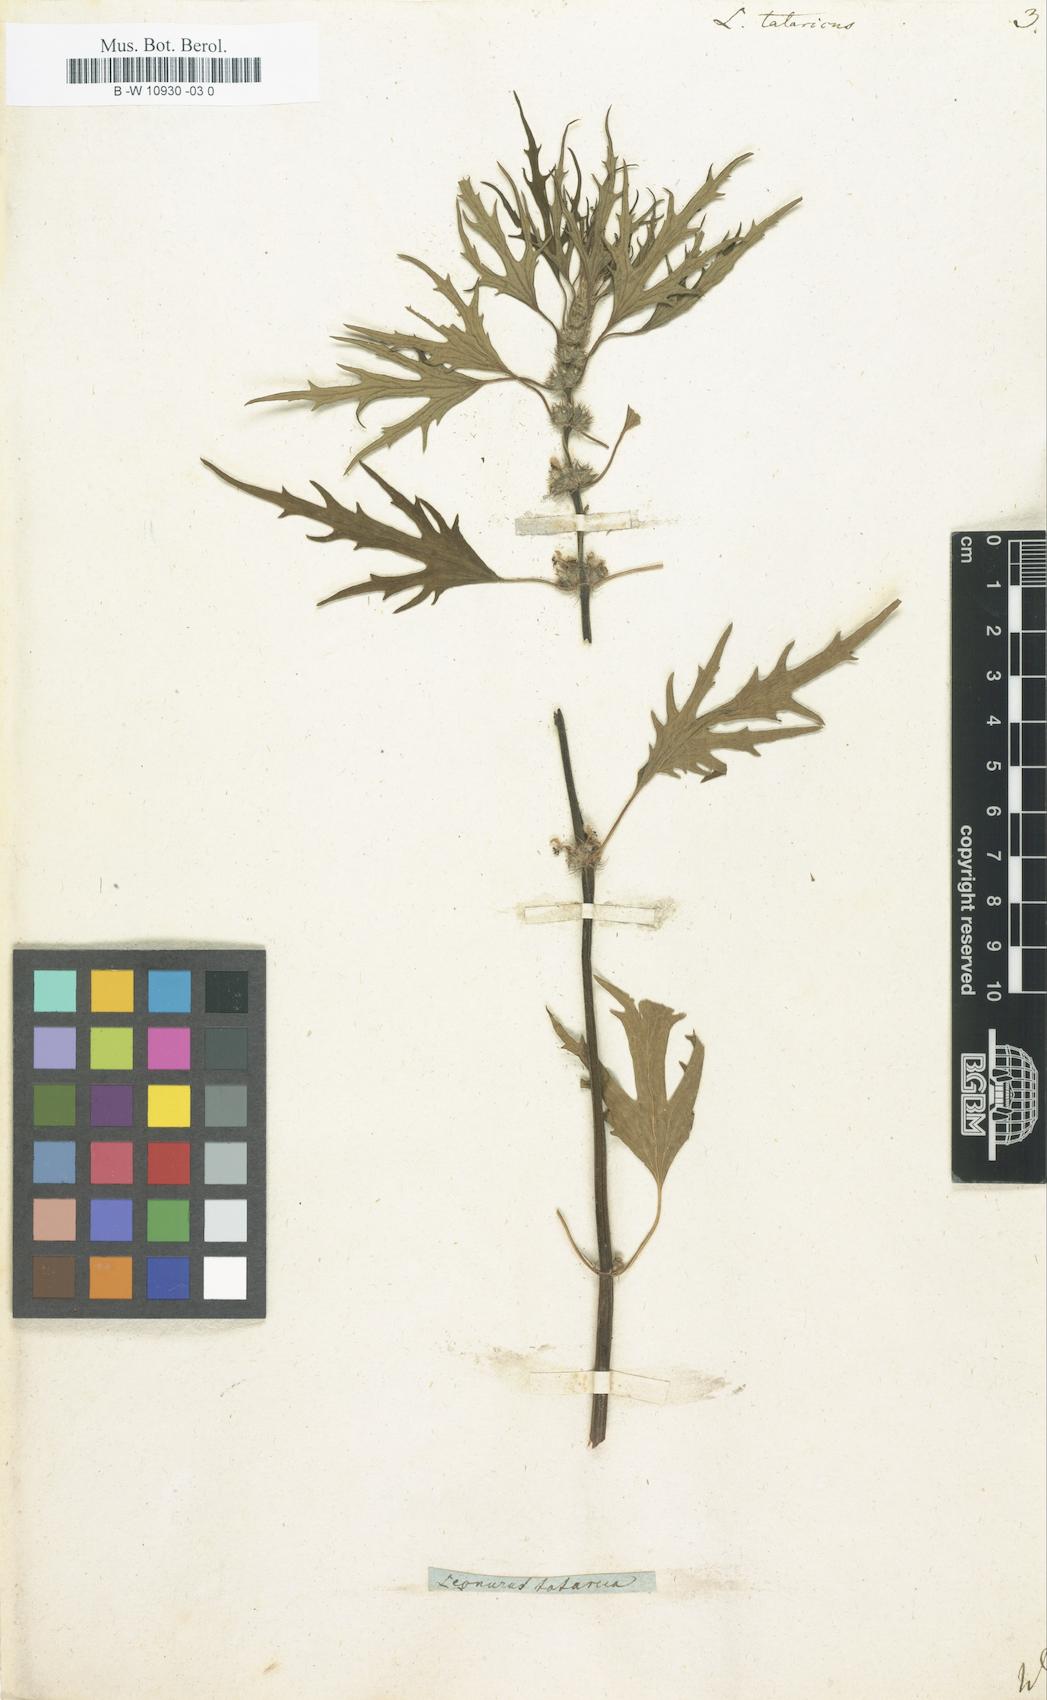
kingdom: Plantae
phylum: Tracheophyta
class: Magnoliopsida
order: Lamiales
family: Lamiaceae
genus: Leonurus
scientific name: Leonurus tataricus
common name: Chinese motherwort
